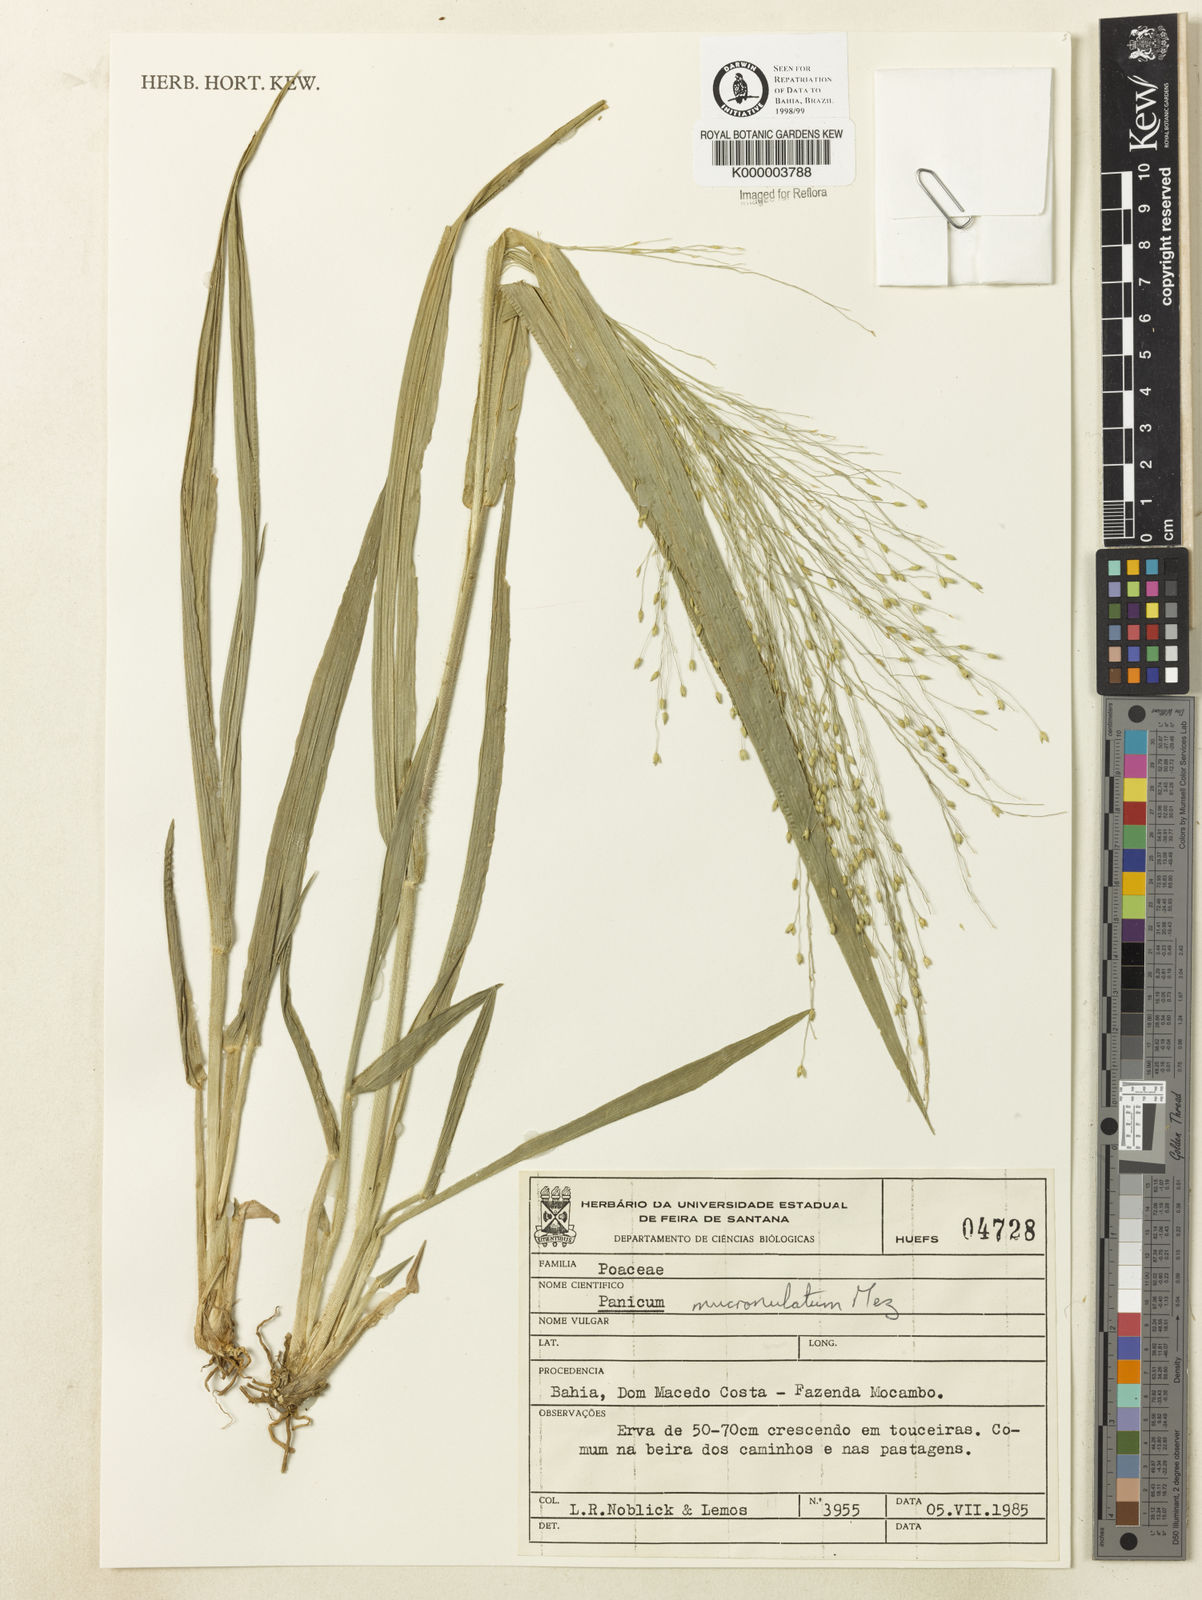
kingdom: Plantae
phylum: Tracheophyta
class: Liliopsida
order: Poales
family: Poaceae
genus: Panicum
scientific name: Panicum mucronulatum
